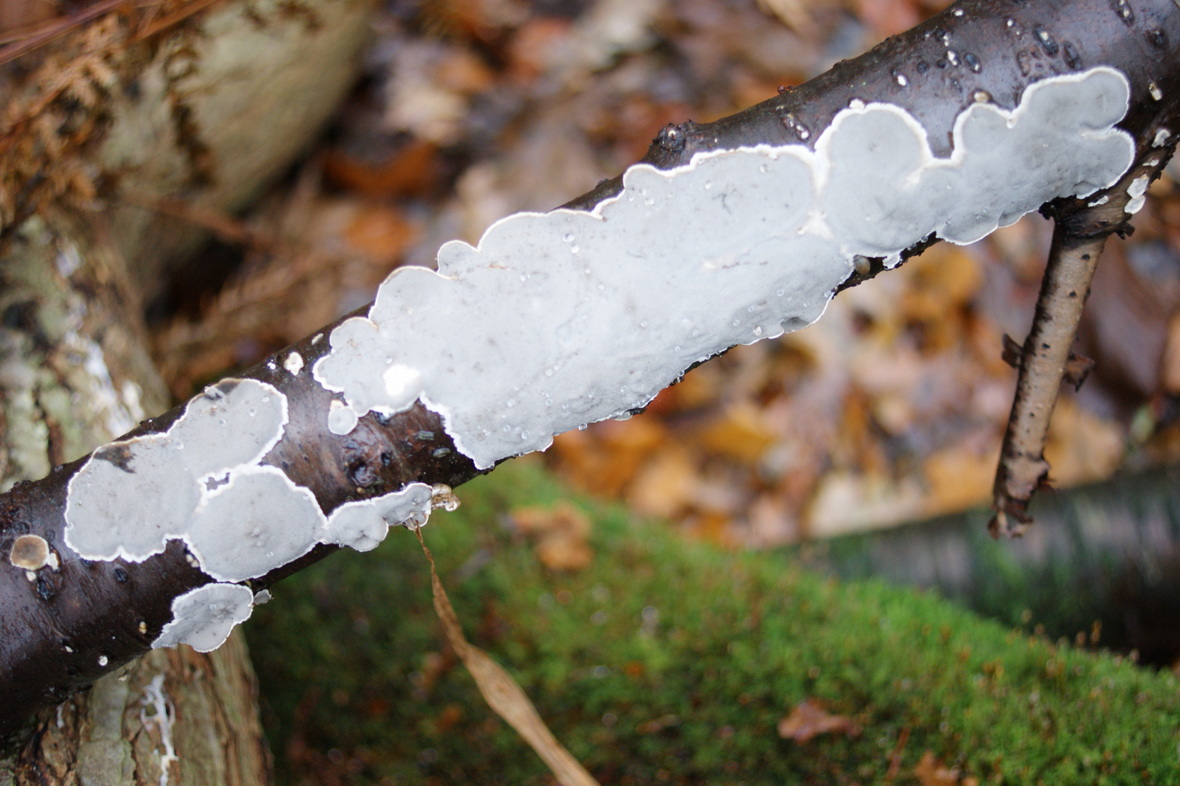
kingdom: Fungi
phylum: Basidiomycota
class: Agaricomycetes
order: Polyporales
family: Phanerochaetaceae
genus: Bjerkandera
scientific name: Bjerkandera adusta
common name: sveden sodporesvamp
